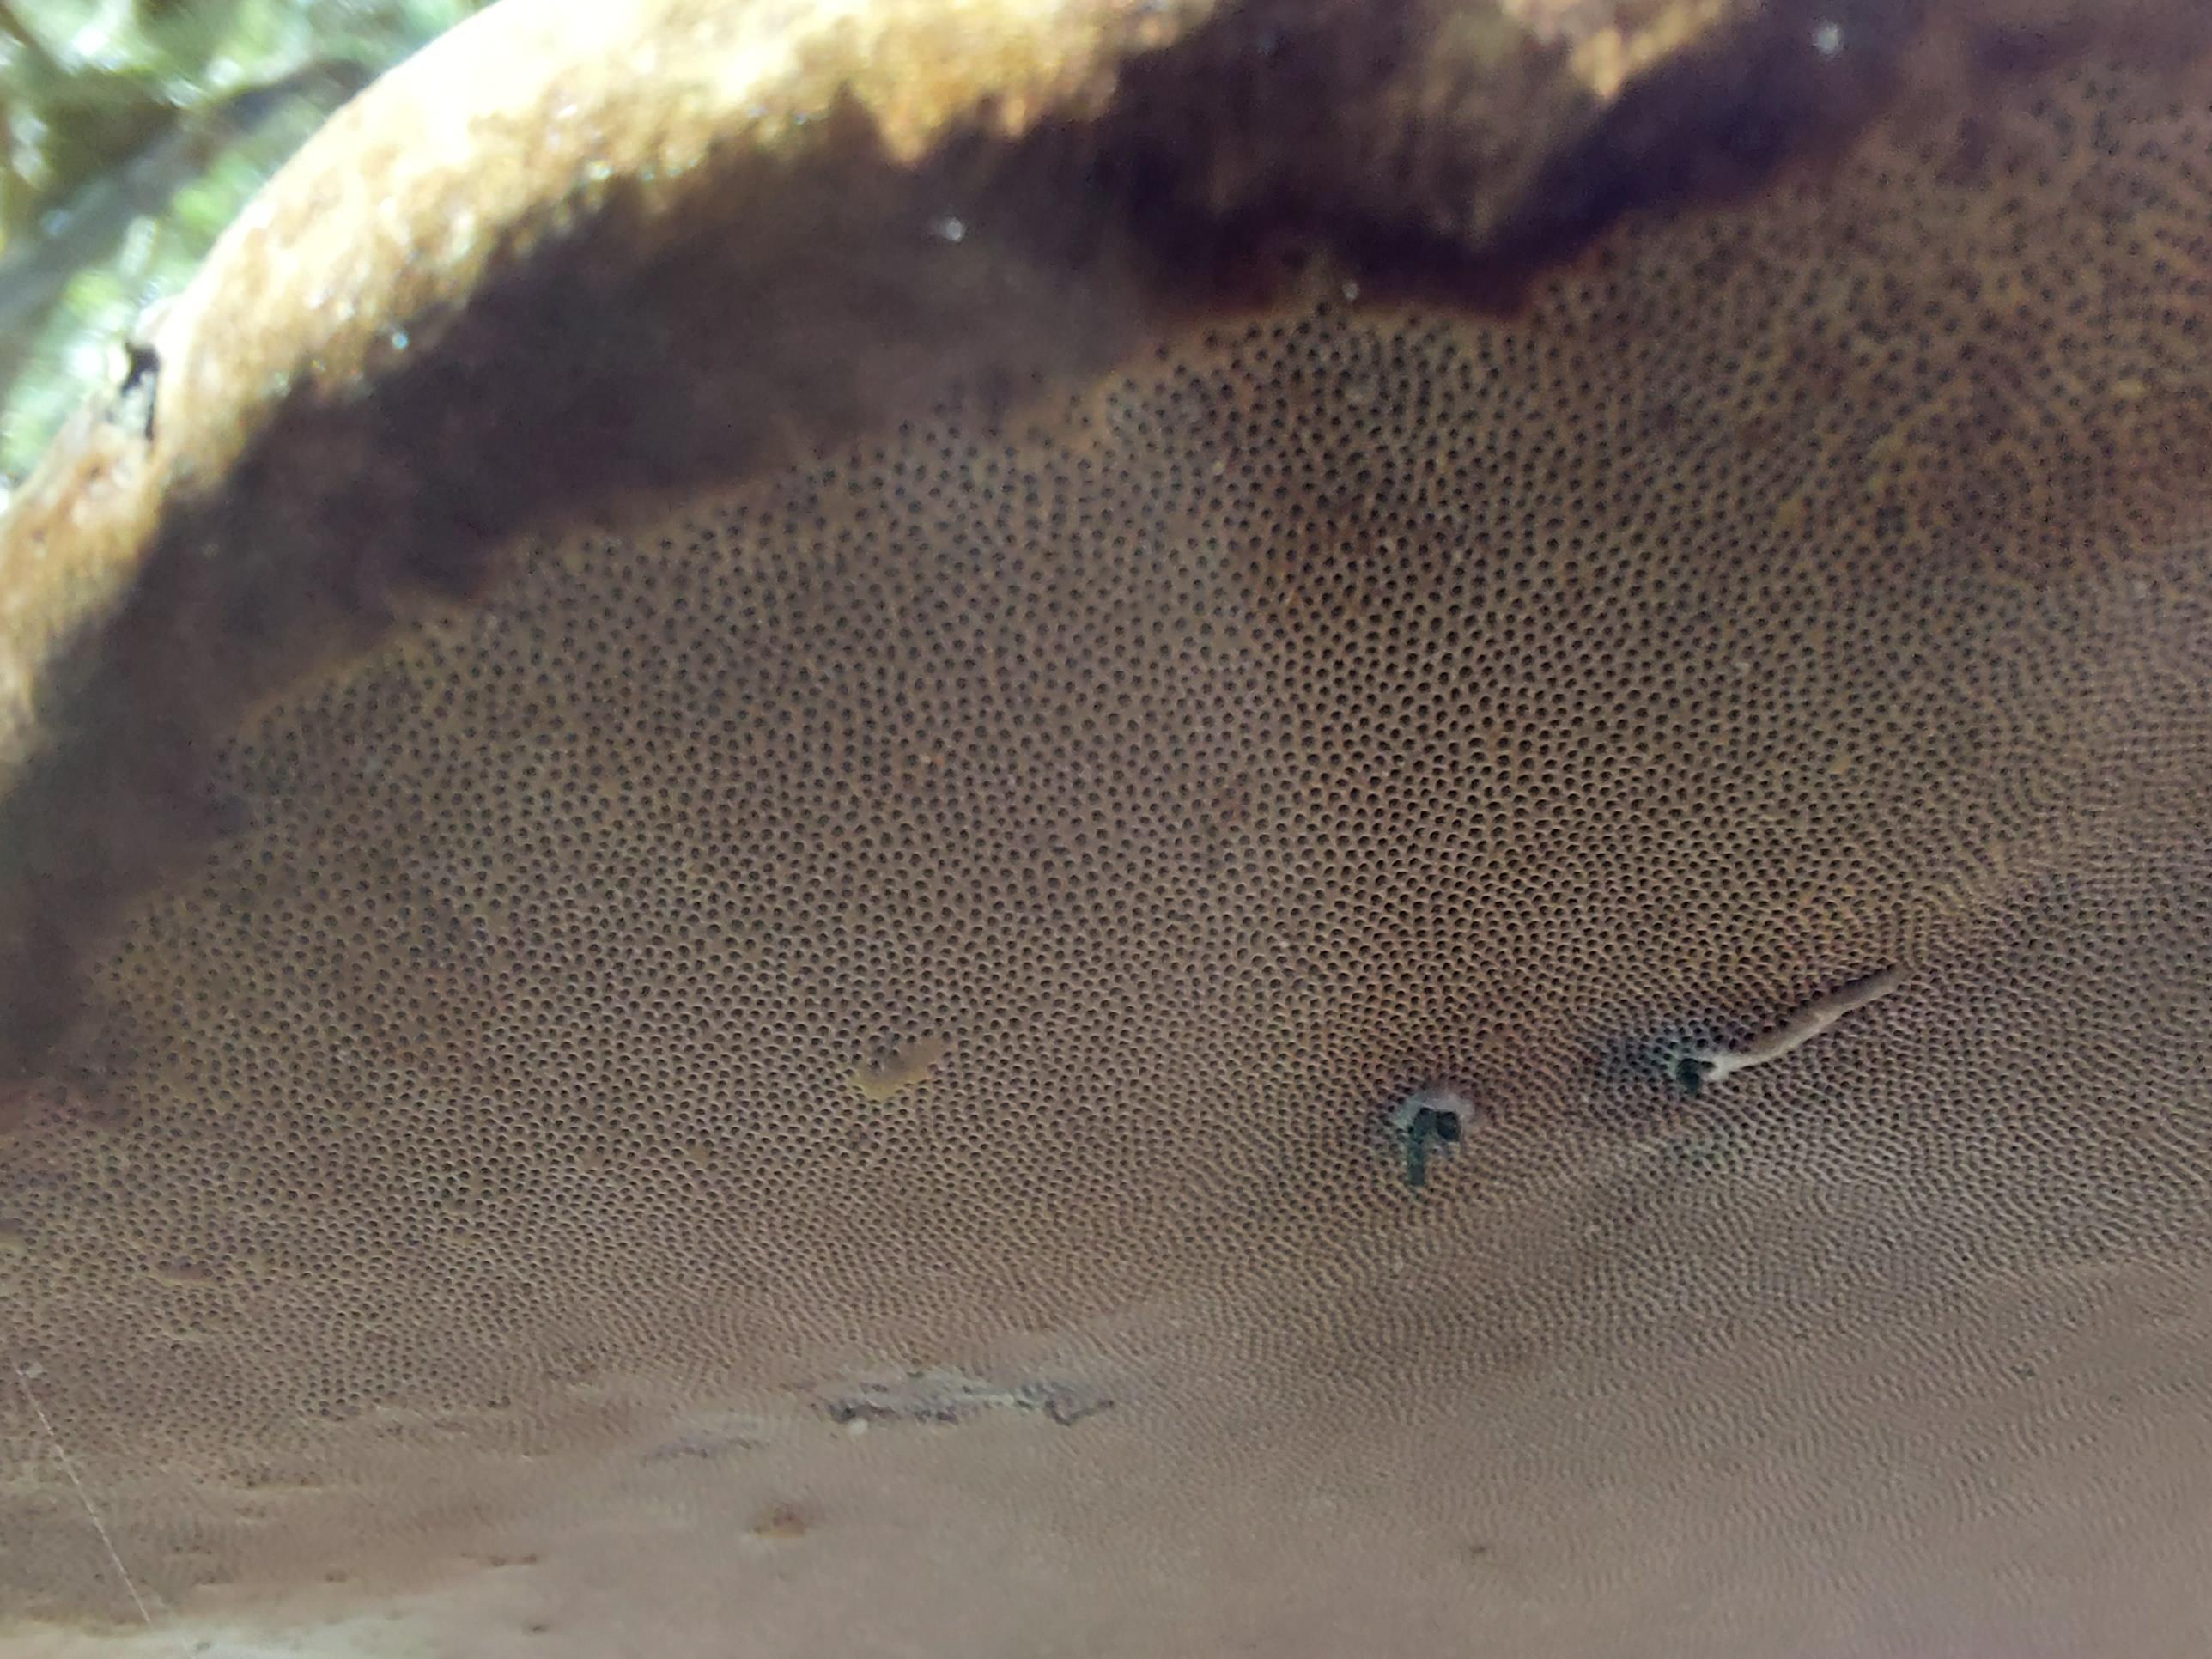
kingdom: Fungi
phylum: Basidiomycota
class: Agaricomycetes
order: Polyporales
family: Polyporaceae
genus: Fomes
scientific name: Fomes fomentarius
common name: tøndersvamp
